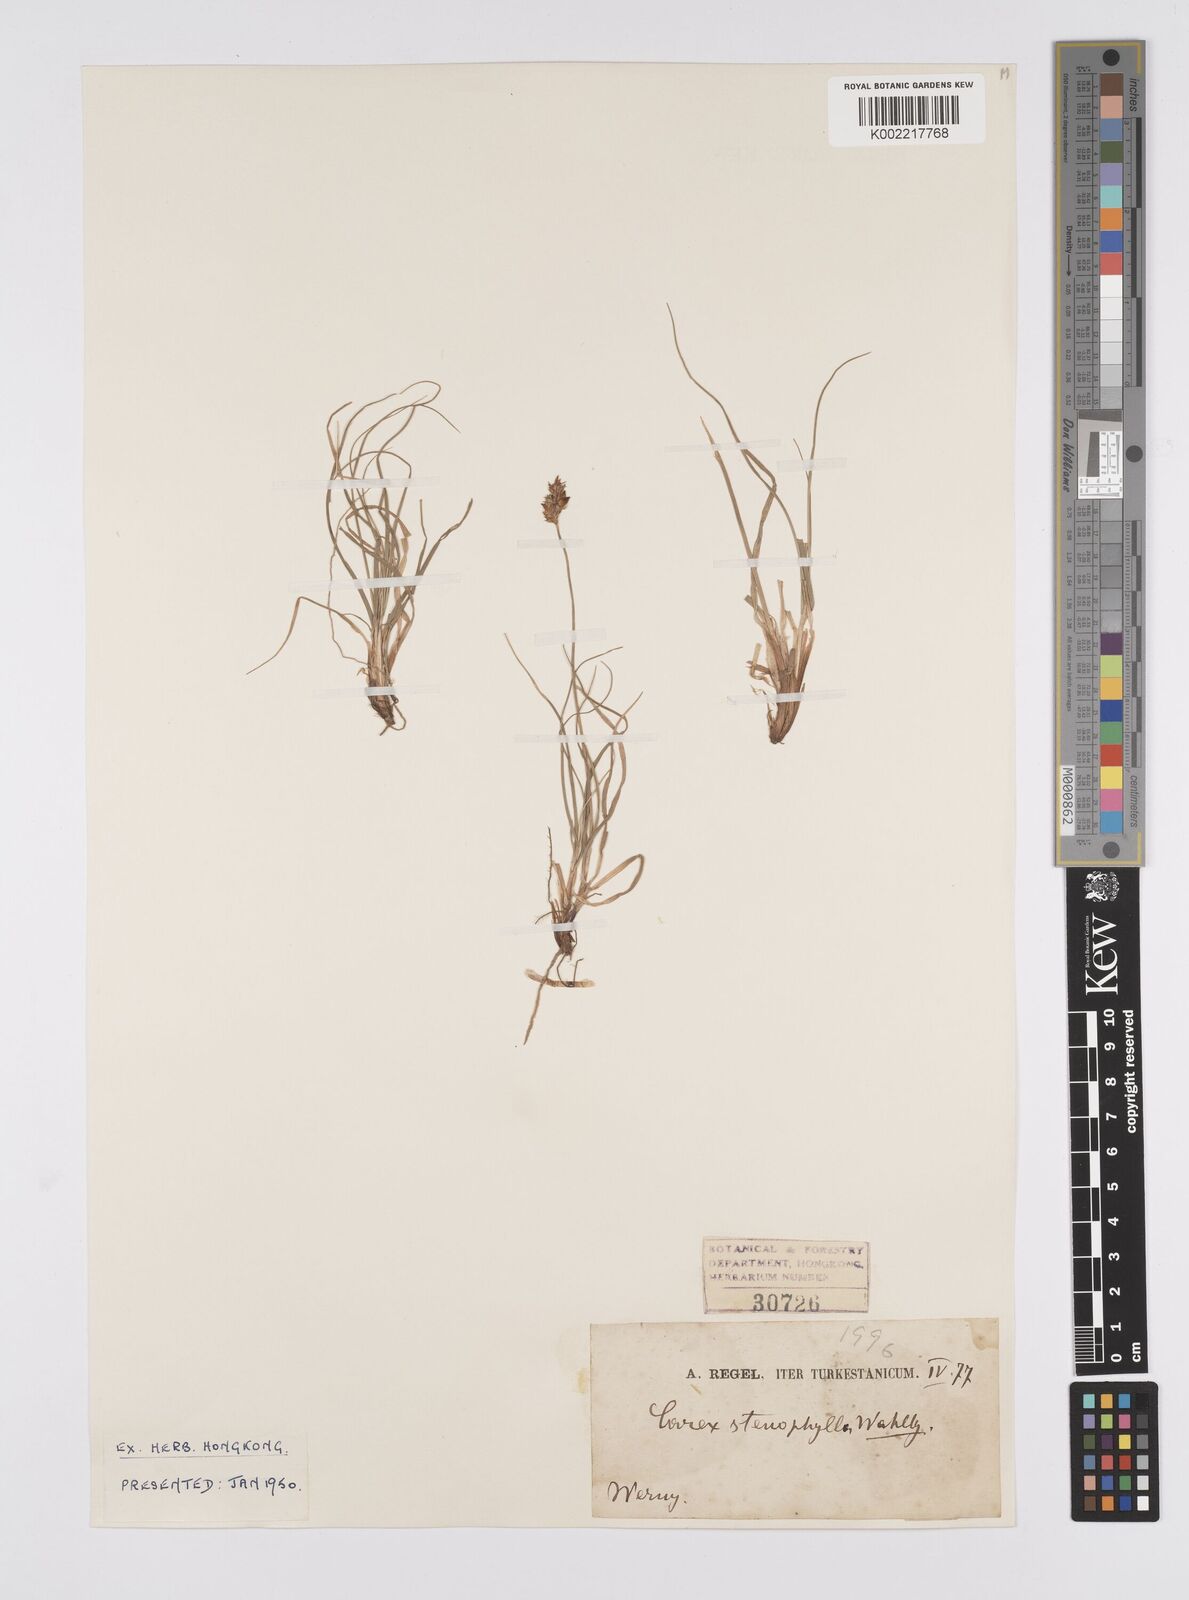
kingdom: Plantae
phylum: Tracheophyta
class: Liliopsida
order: Poales
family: Cyperaceae
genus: Carex
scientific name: Carex stenophylla
